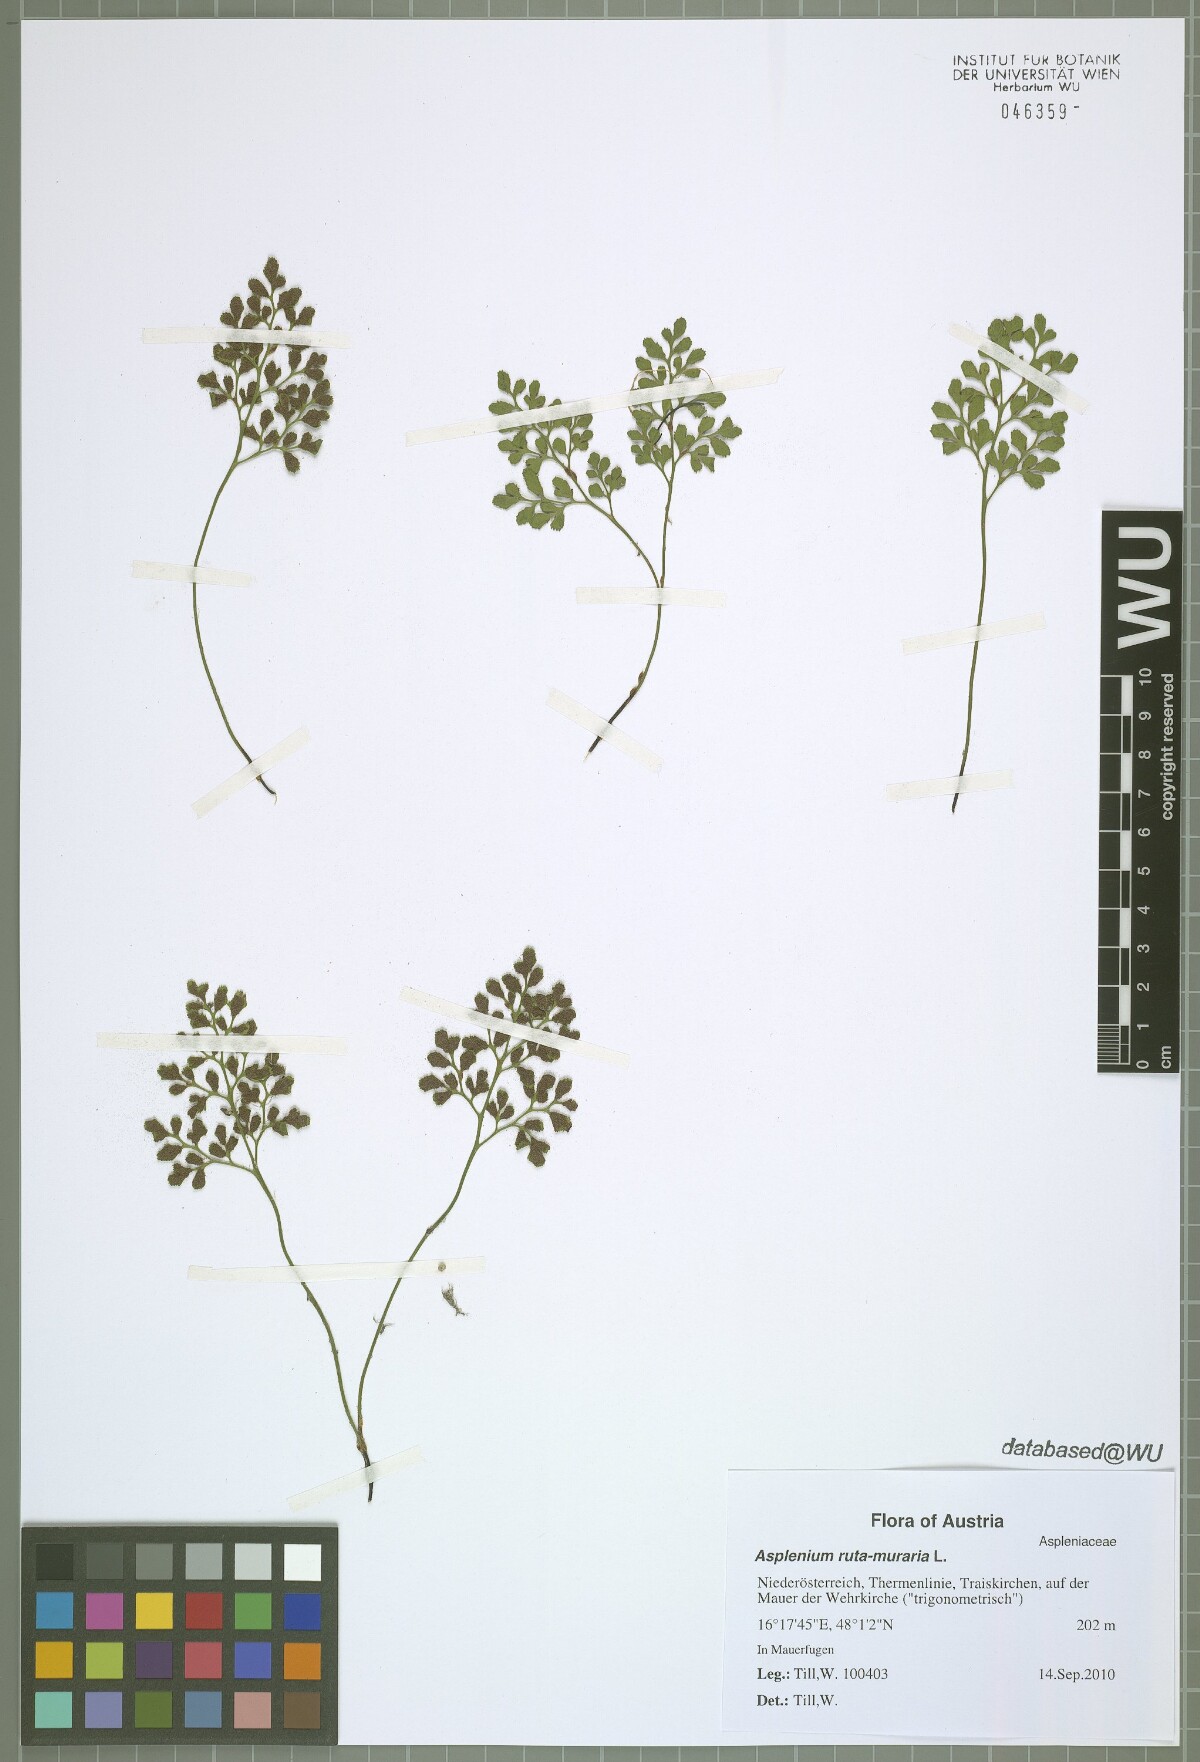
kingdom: Plantae
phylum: Tracheophyta
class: Polypodiopsida
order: Polypodiales
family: Aspleniaceae
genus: Asplenium
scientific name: Asplenium ruta-muraria
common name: Wall-rue
